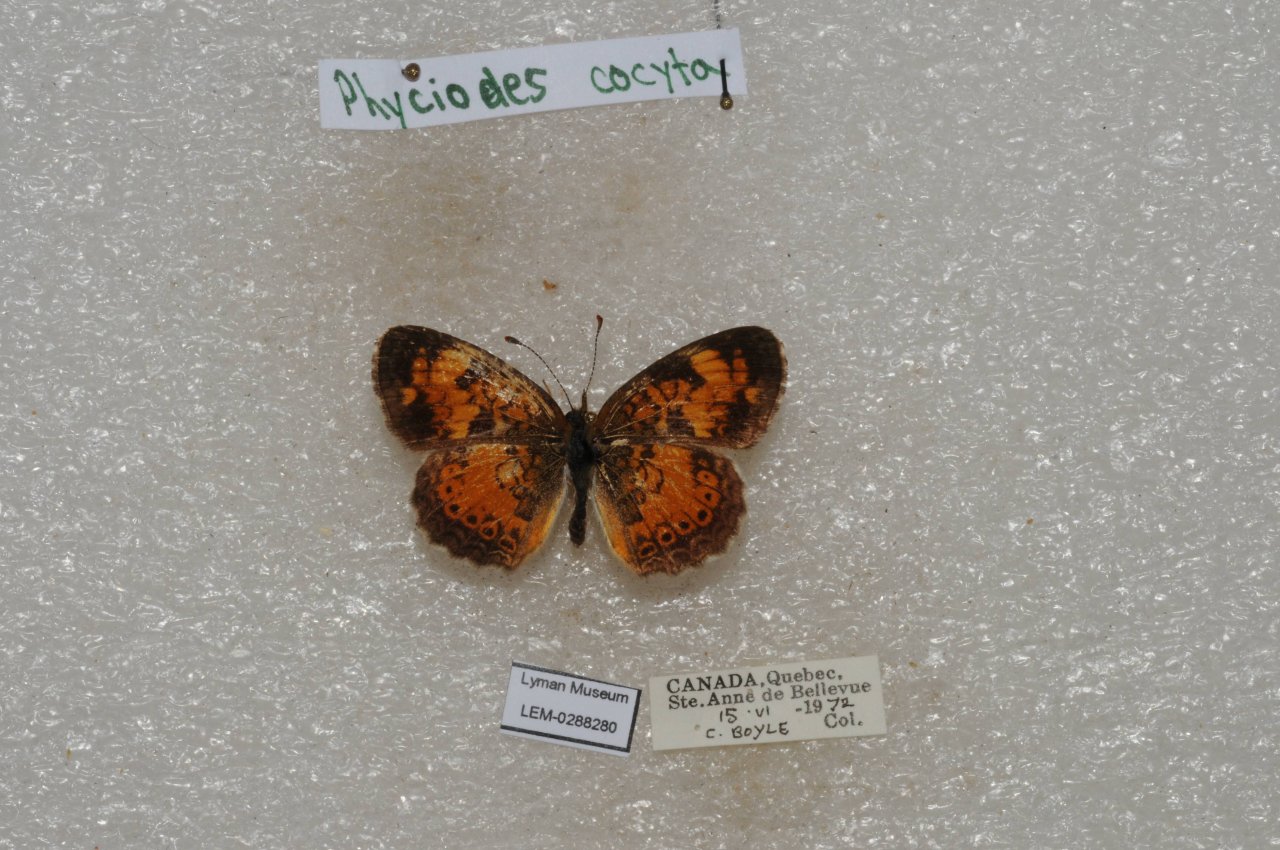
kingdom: Animalia
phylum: Arthropoda
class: Insecta
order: Lepidoptera
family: Nymphalidae
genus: Phyciodes
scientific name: Phyciodes tharos
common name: Northern Crescent
